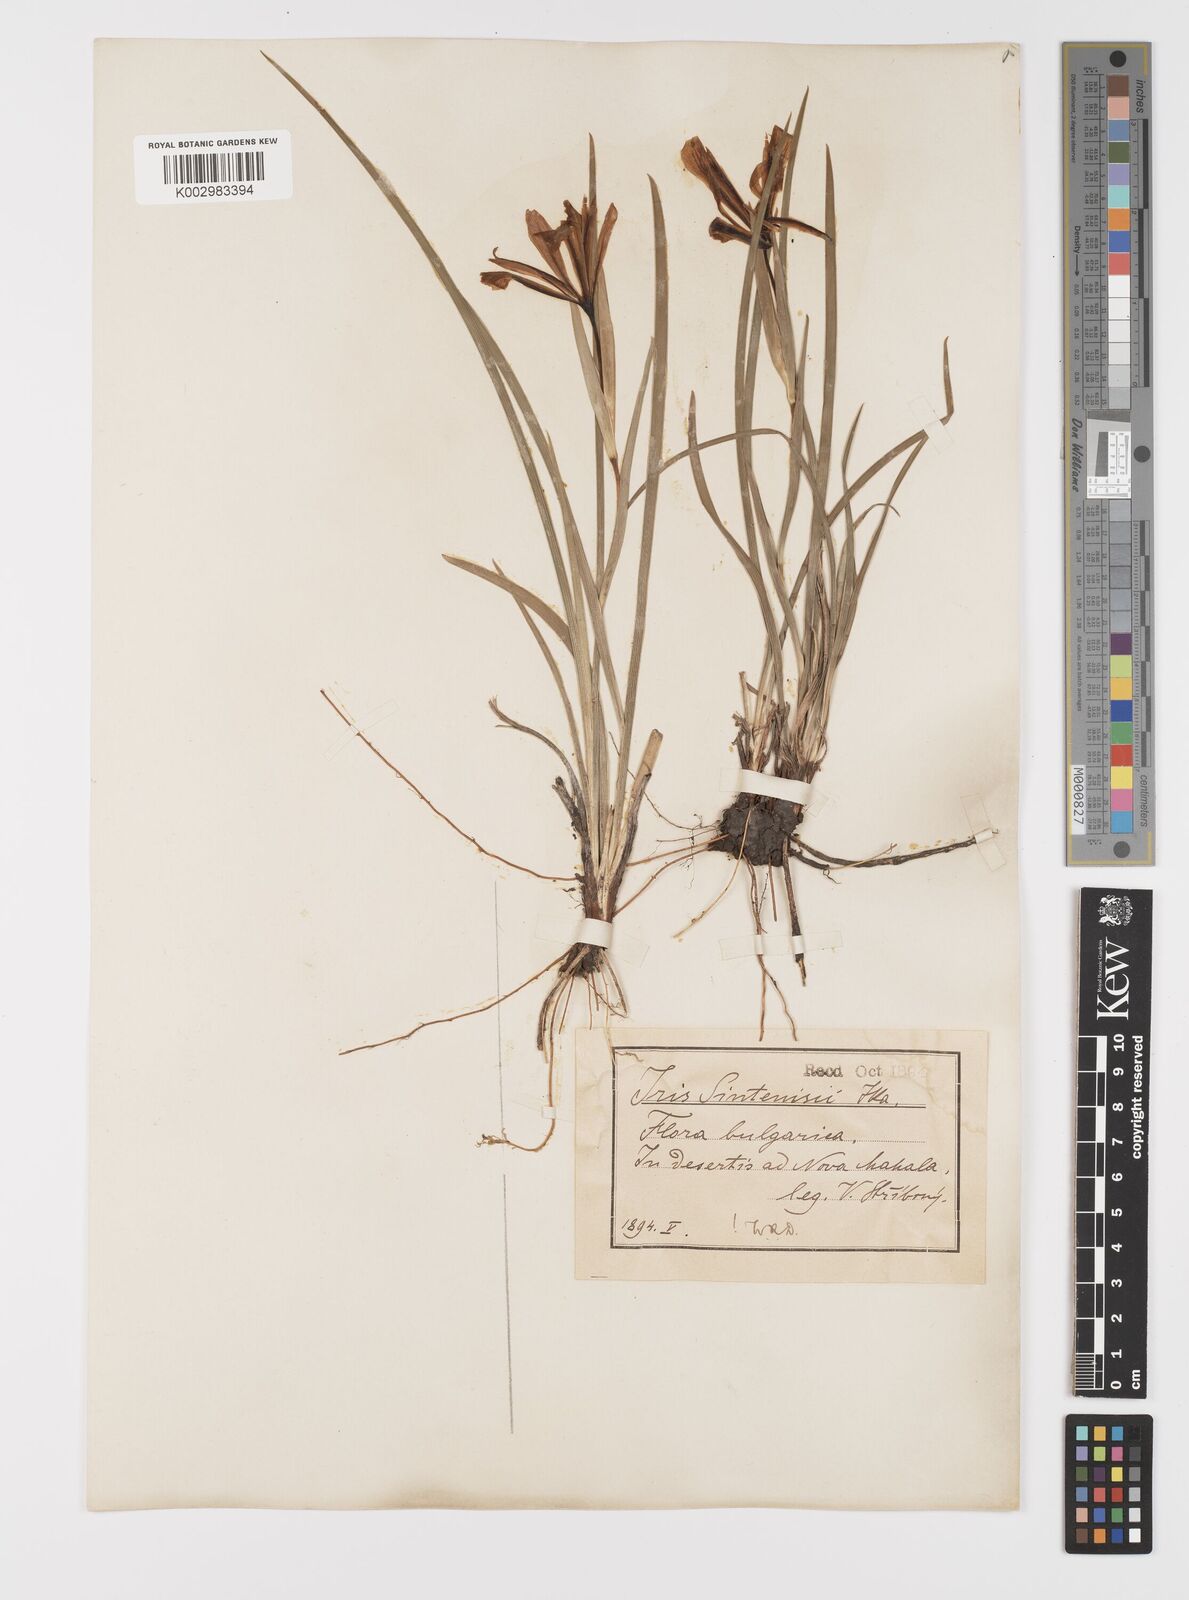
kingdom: Plantae
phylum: Tracheophyta
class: Liliopsida
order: Asparagales
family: Iridaceae
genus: Iris
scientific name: Iris sintenisii
